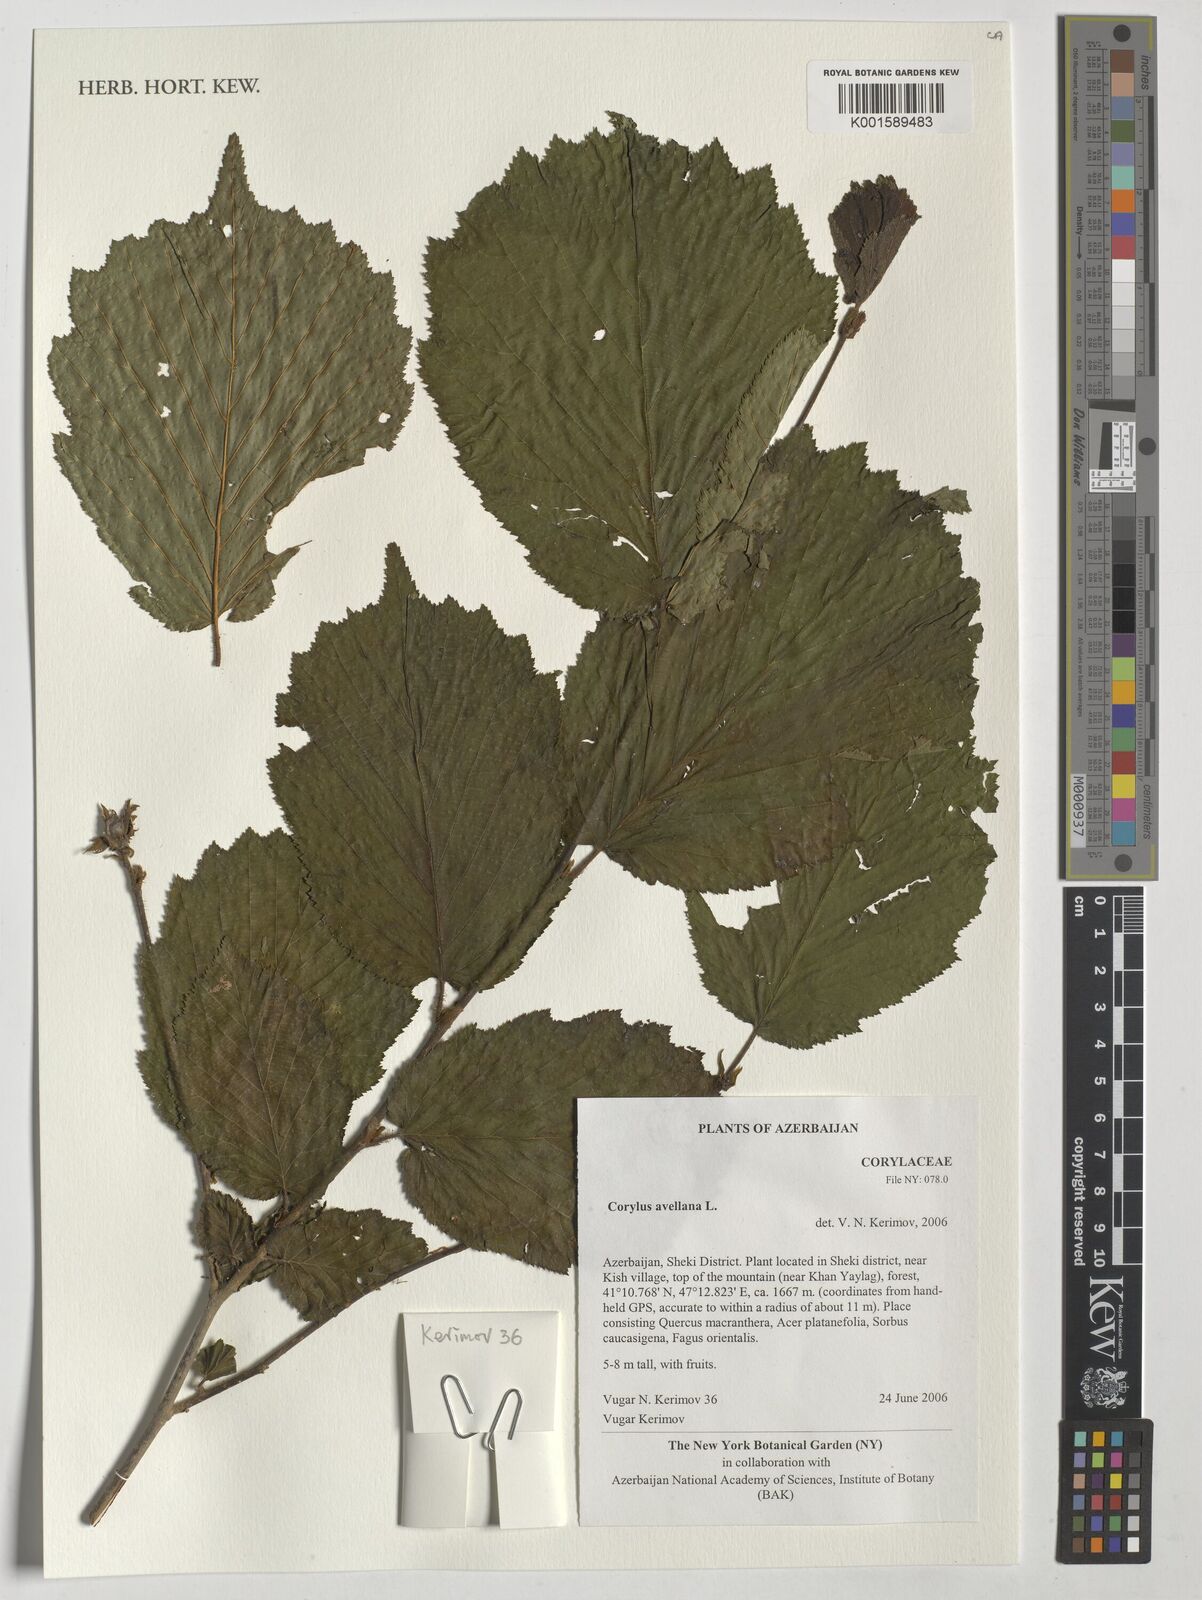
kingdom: Plantae
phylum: Tracheophyta
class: Magnoliopsida
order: Fagales
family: Betulaceae
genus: Corylus
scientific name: Corylus avellana
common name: European hazel
